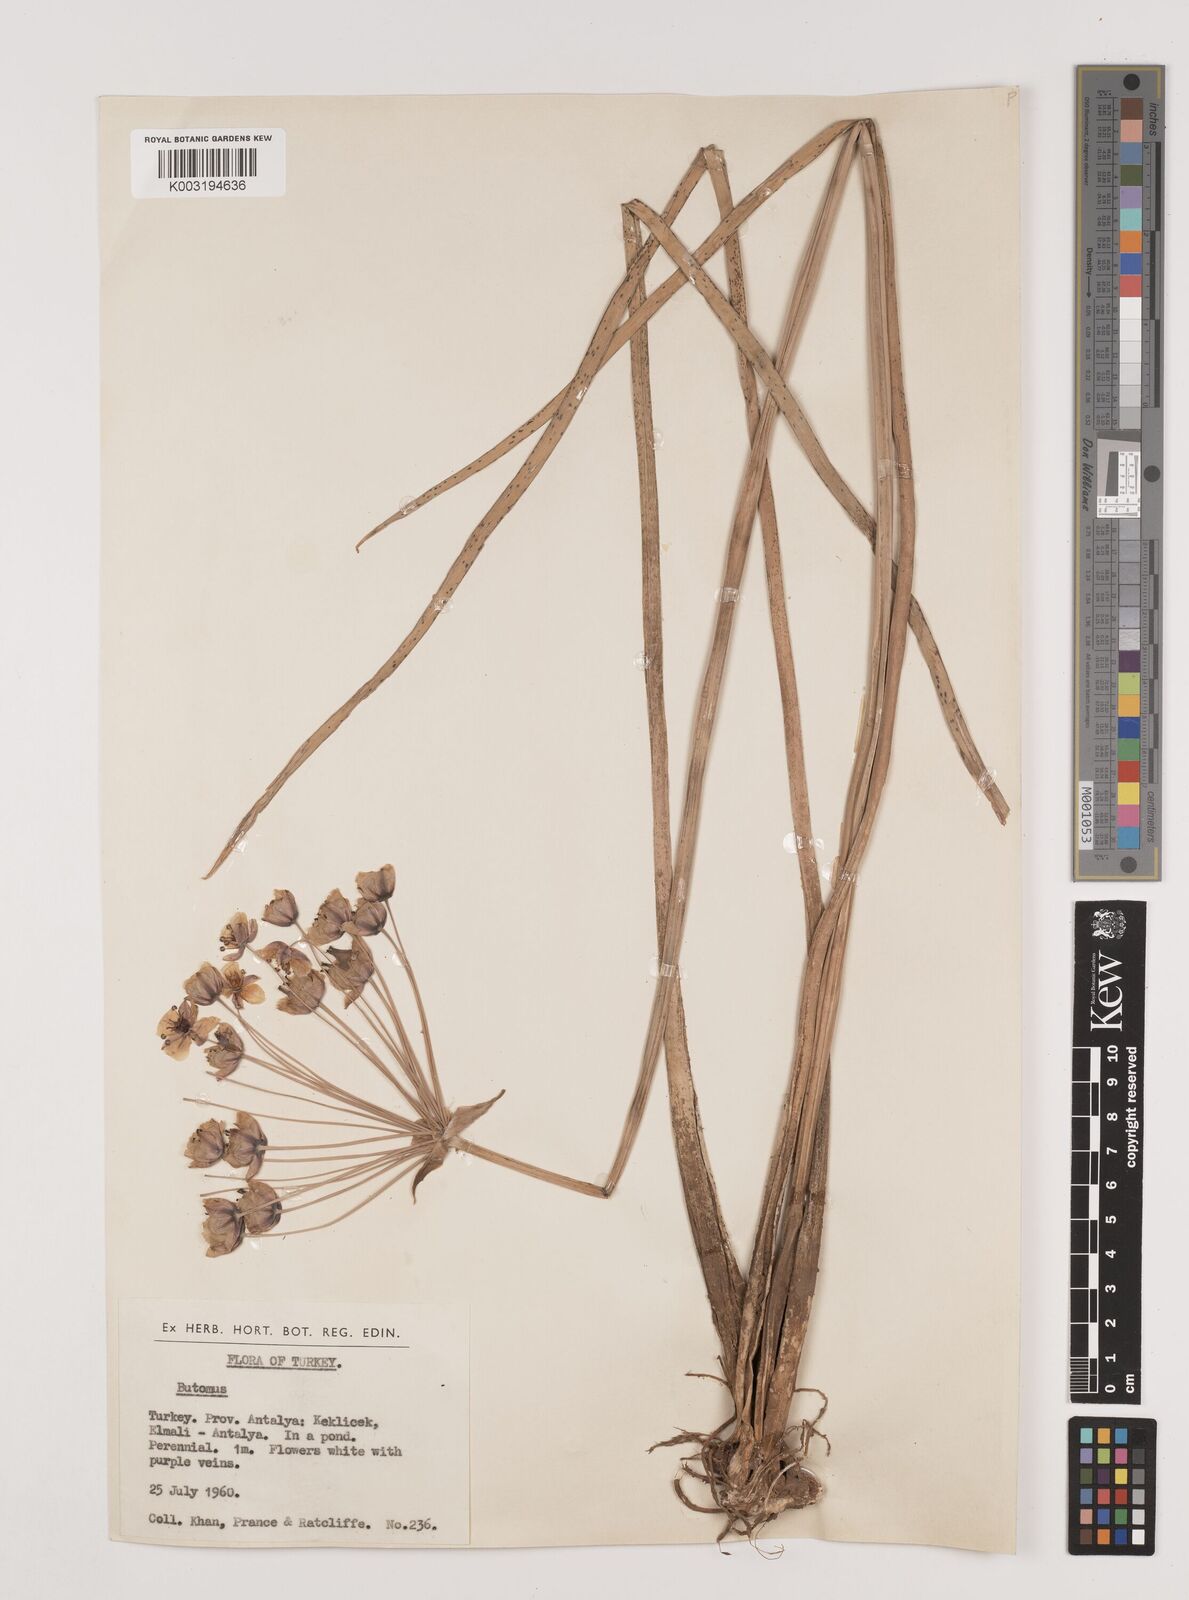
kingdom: Plantae
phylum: Tracheophyta
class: Liliopsida
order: Alismatales
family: Butomaceae
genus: Butomus
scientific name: Butomus umbellatus
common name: Flowering-rush
